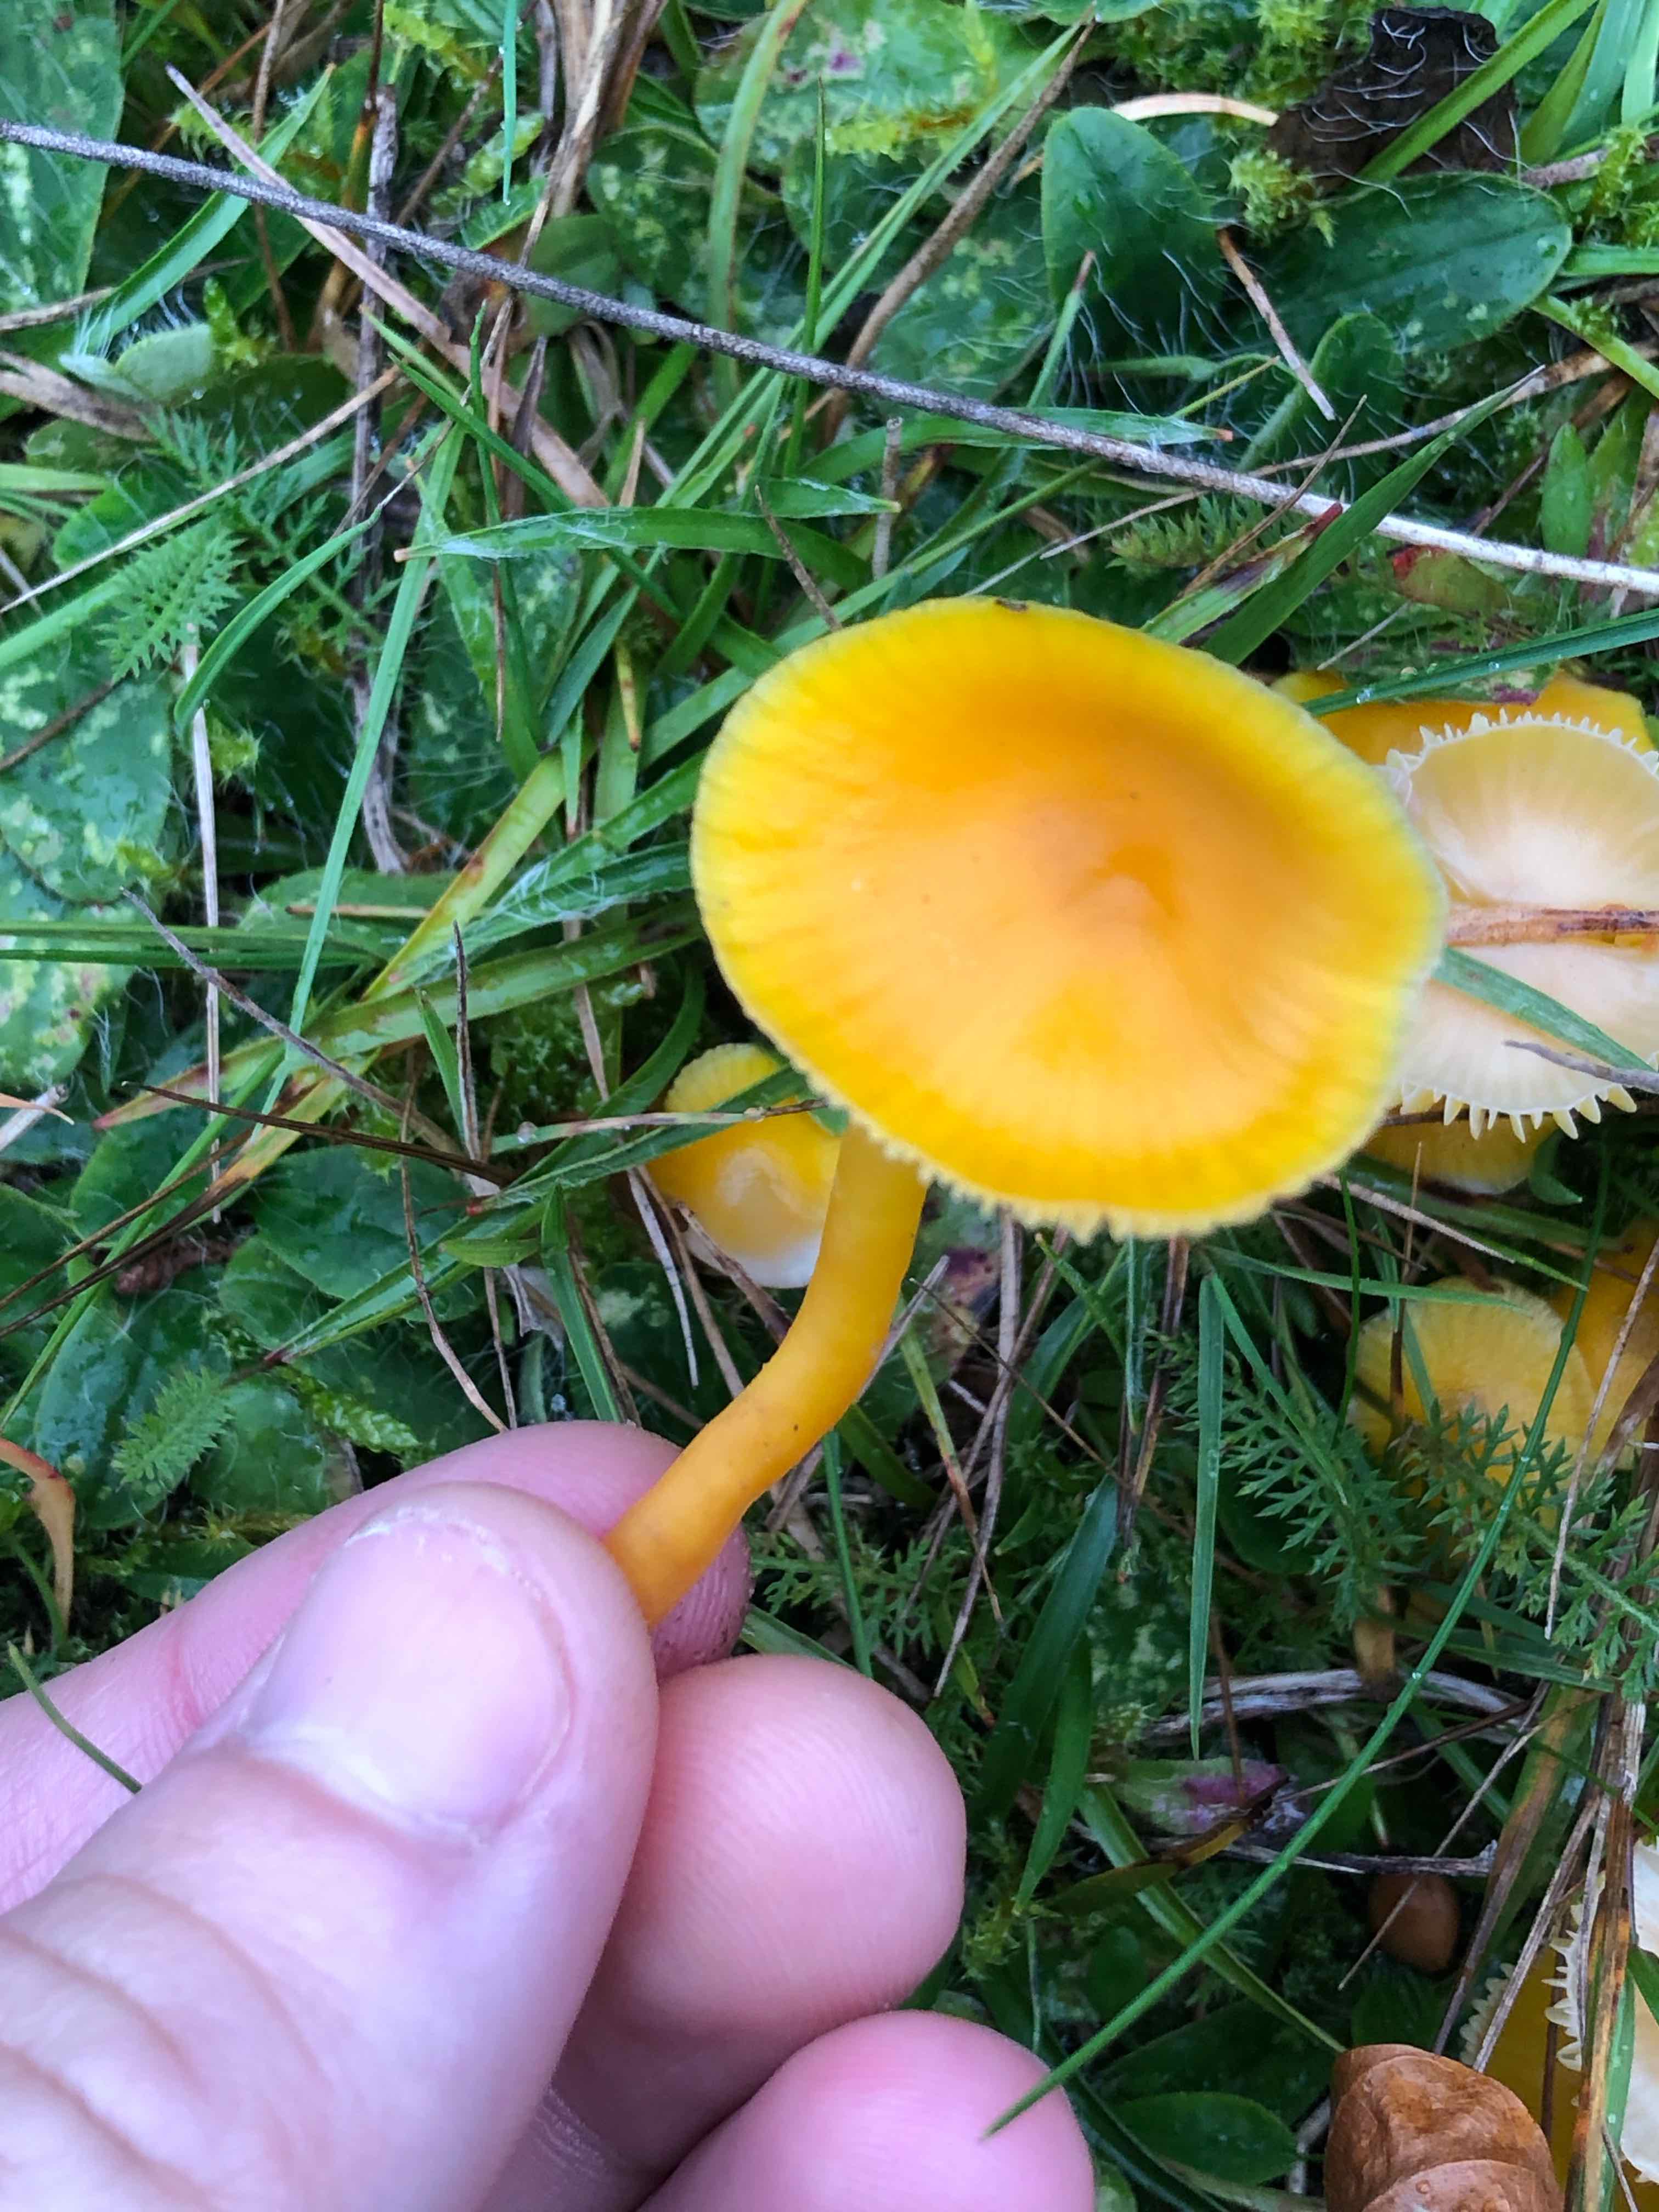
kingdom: Fungi
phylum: Basidiomycota
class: Agaricomycetes
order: Agaricales
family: Hygrophoraceae
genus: Hygrocybe
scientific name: Hygrocybe ceracea
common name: voksgul vokshat
